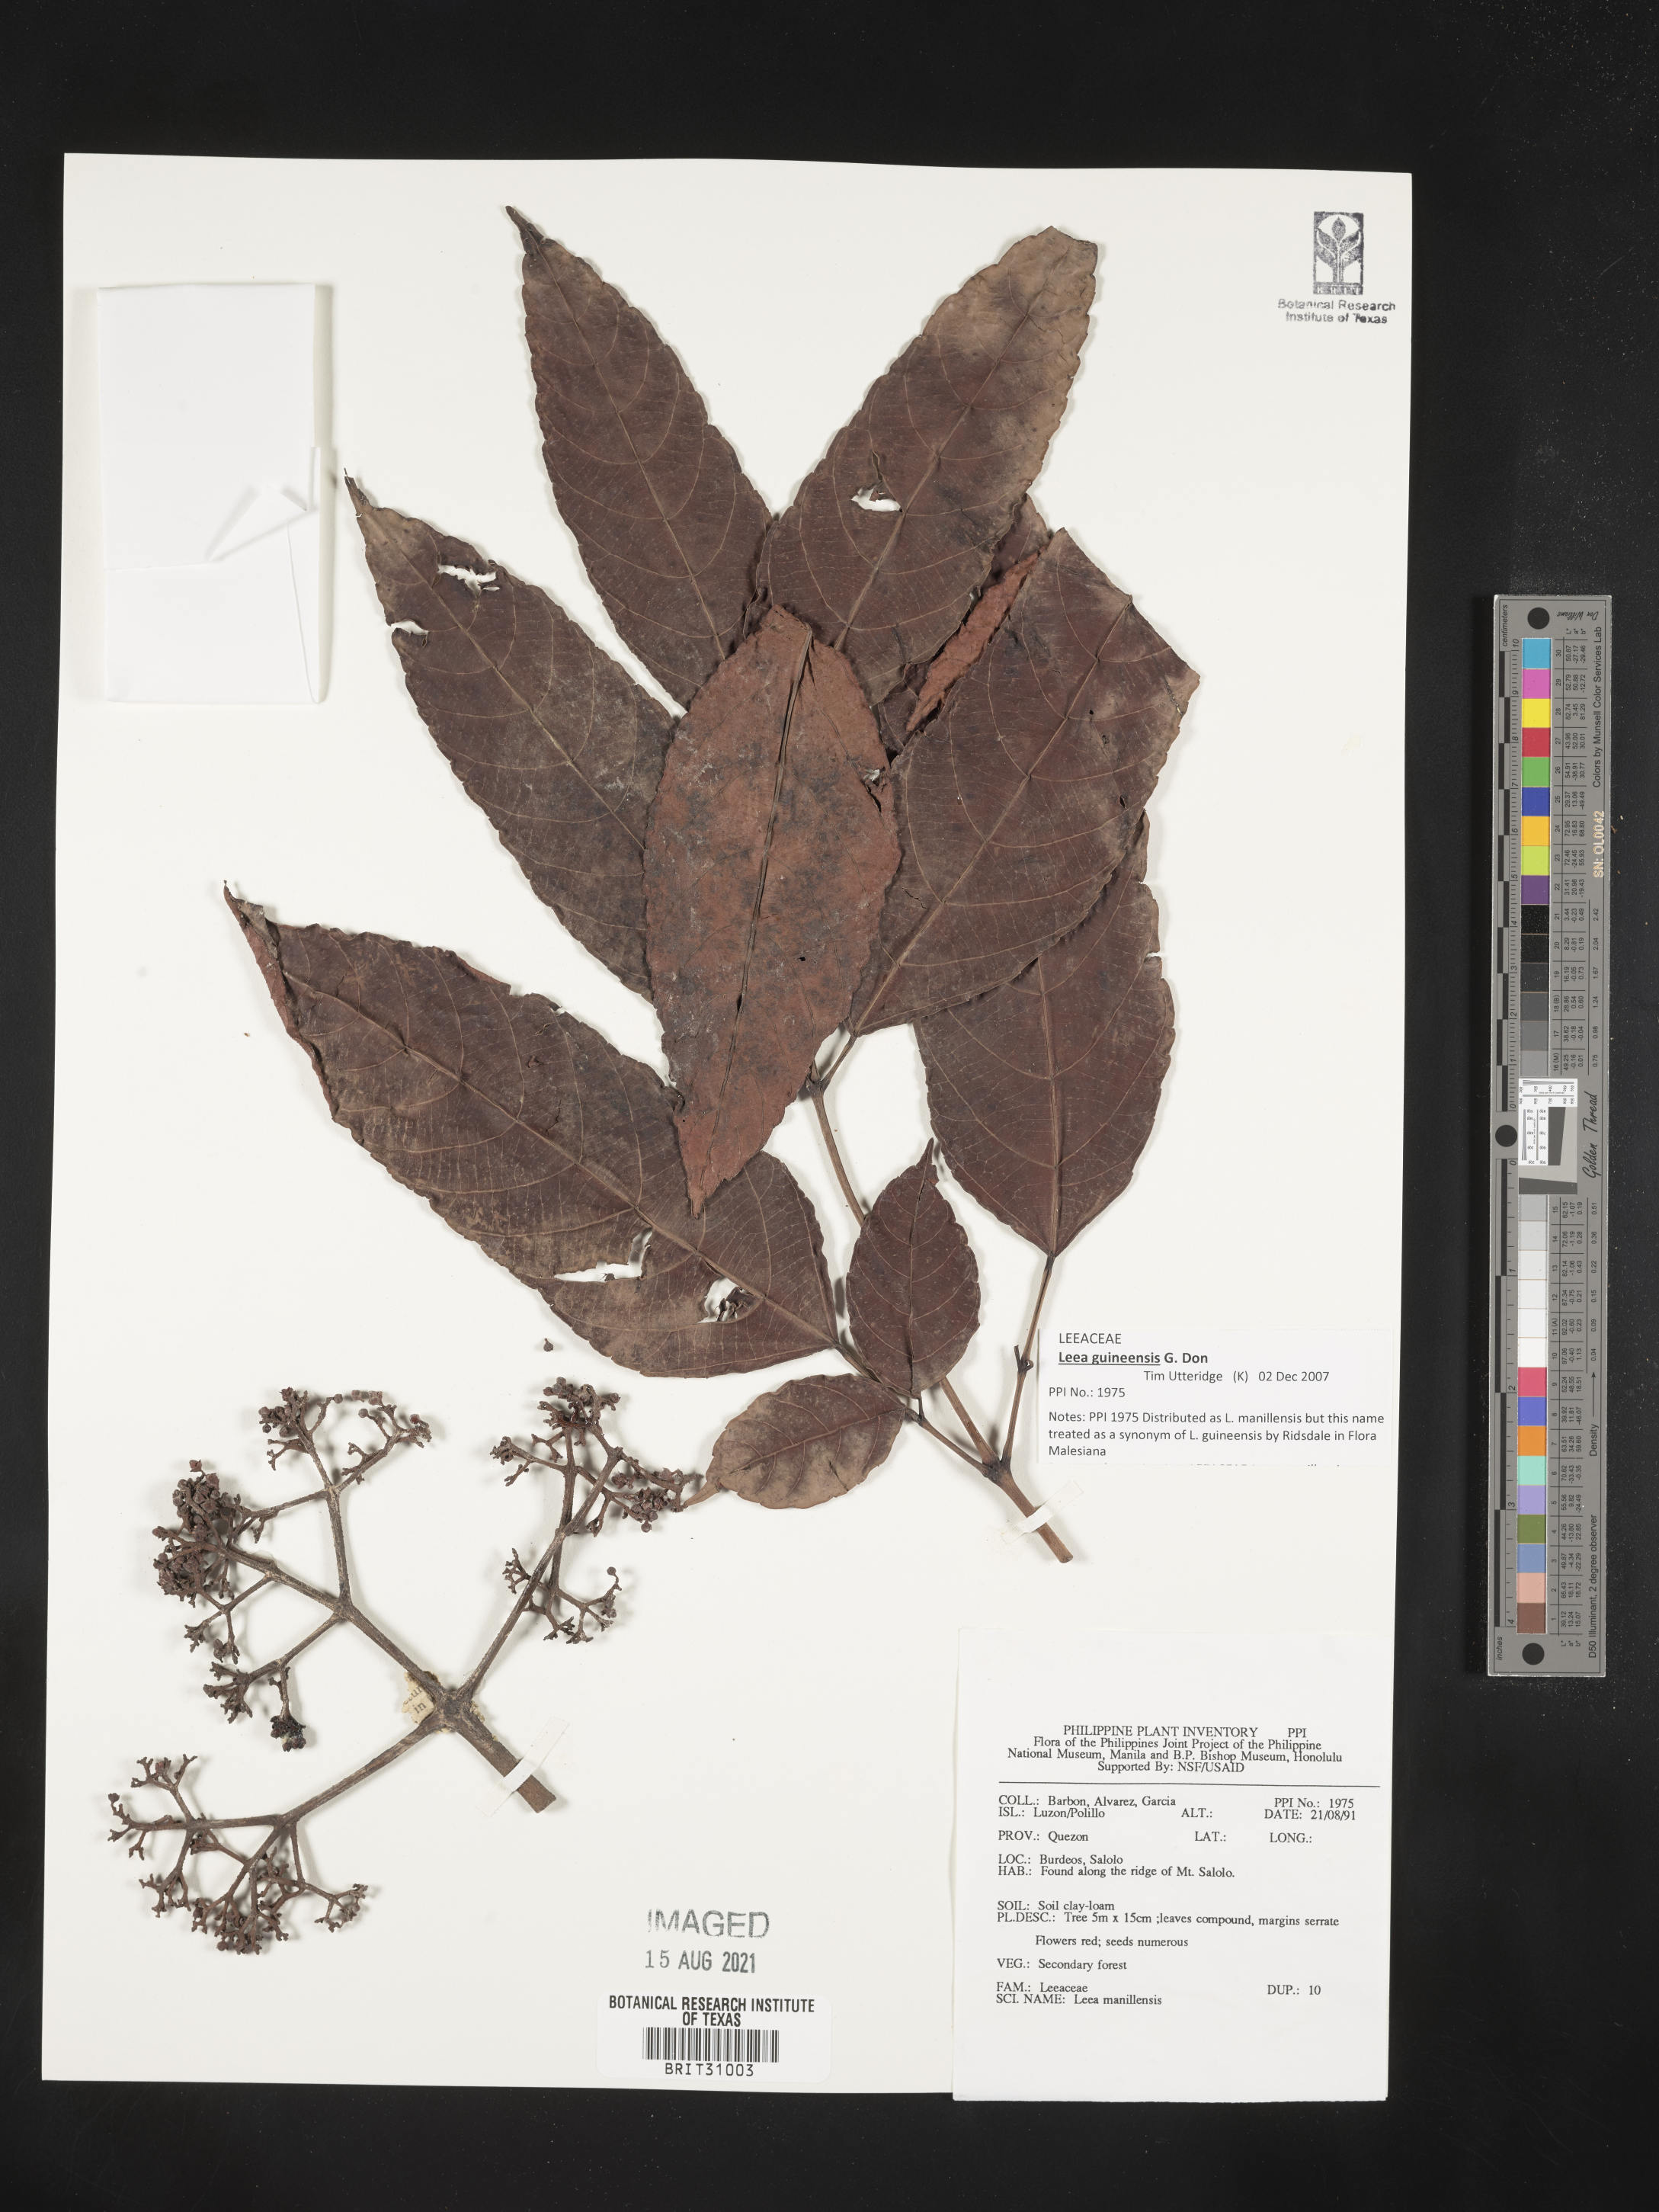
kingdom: Plantae
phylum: Tracheophyta
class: Magnoliopsida
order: Vitales
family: Vitaceae
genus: Leea
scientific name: Leea guineensis
